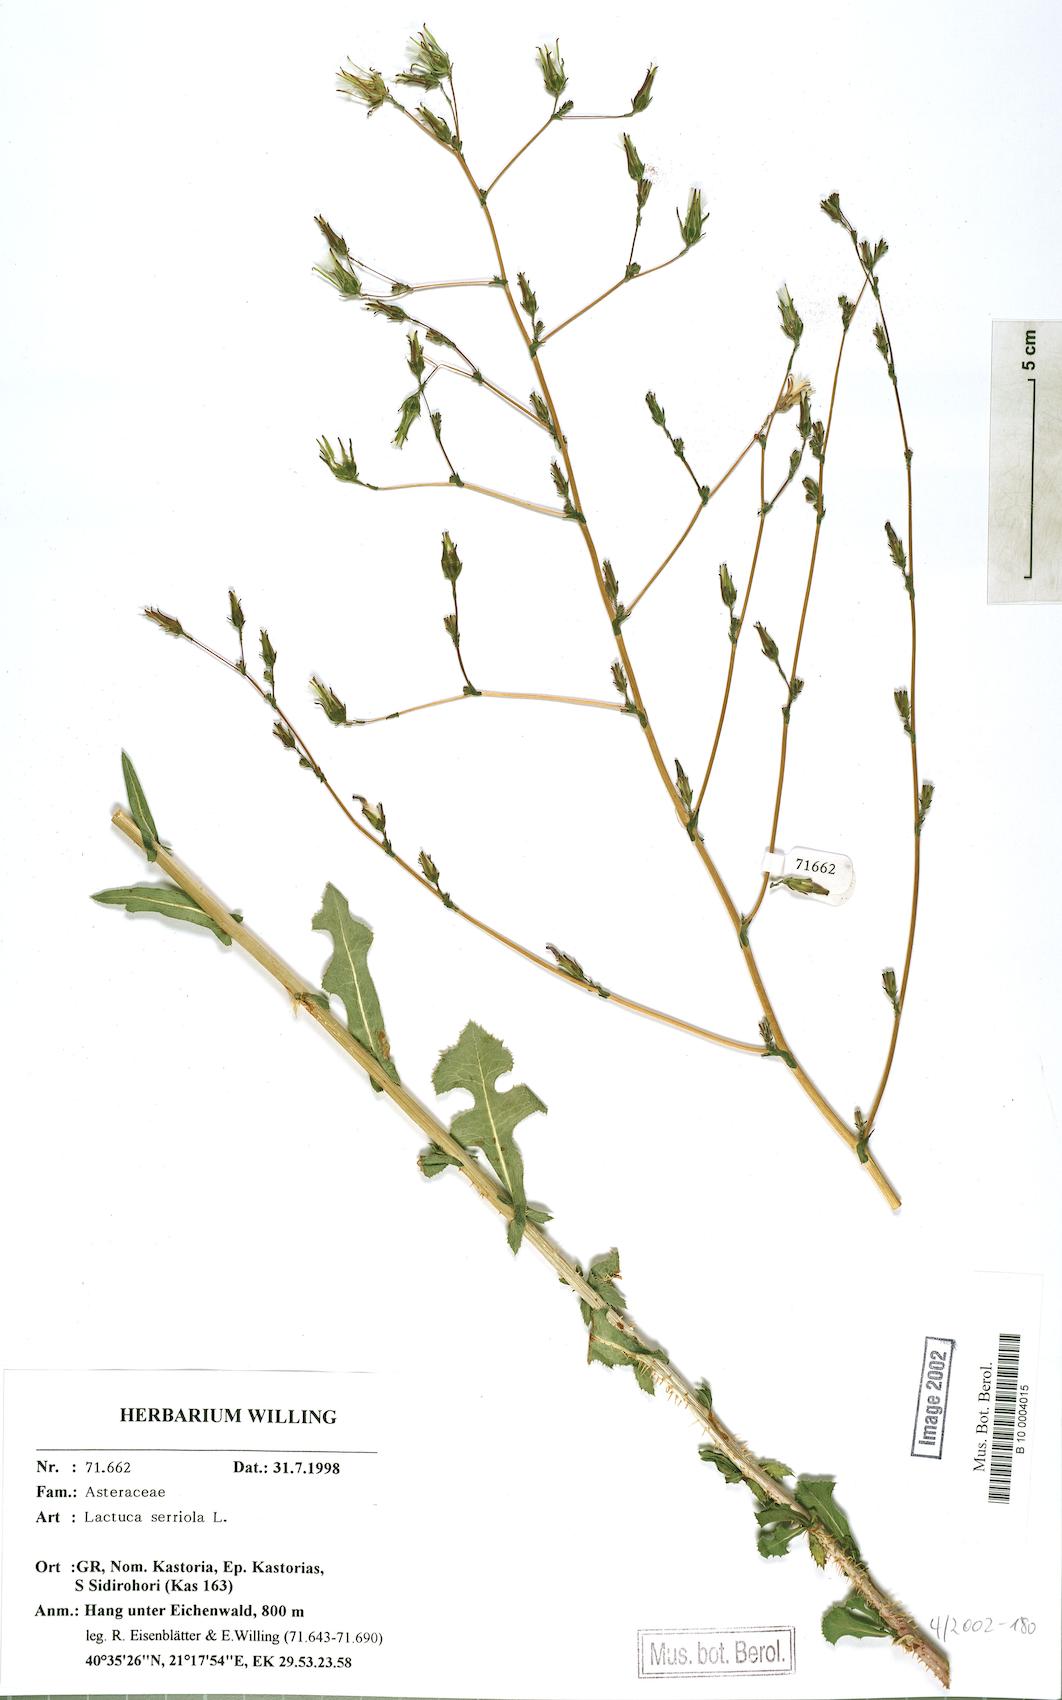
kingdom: Plantae
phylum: Tracheophyta
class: Magnoliopsida
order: Asterales
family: Asteraceae
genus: Lactuca
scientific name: Lactuca serriola
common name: Prickly lettuce
